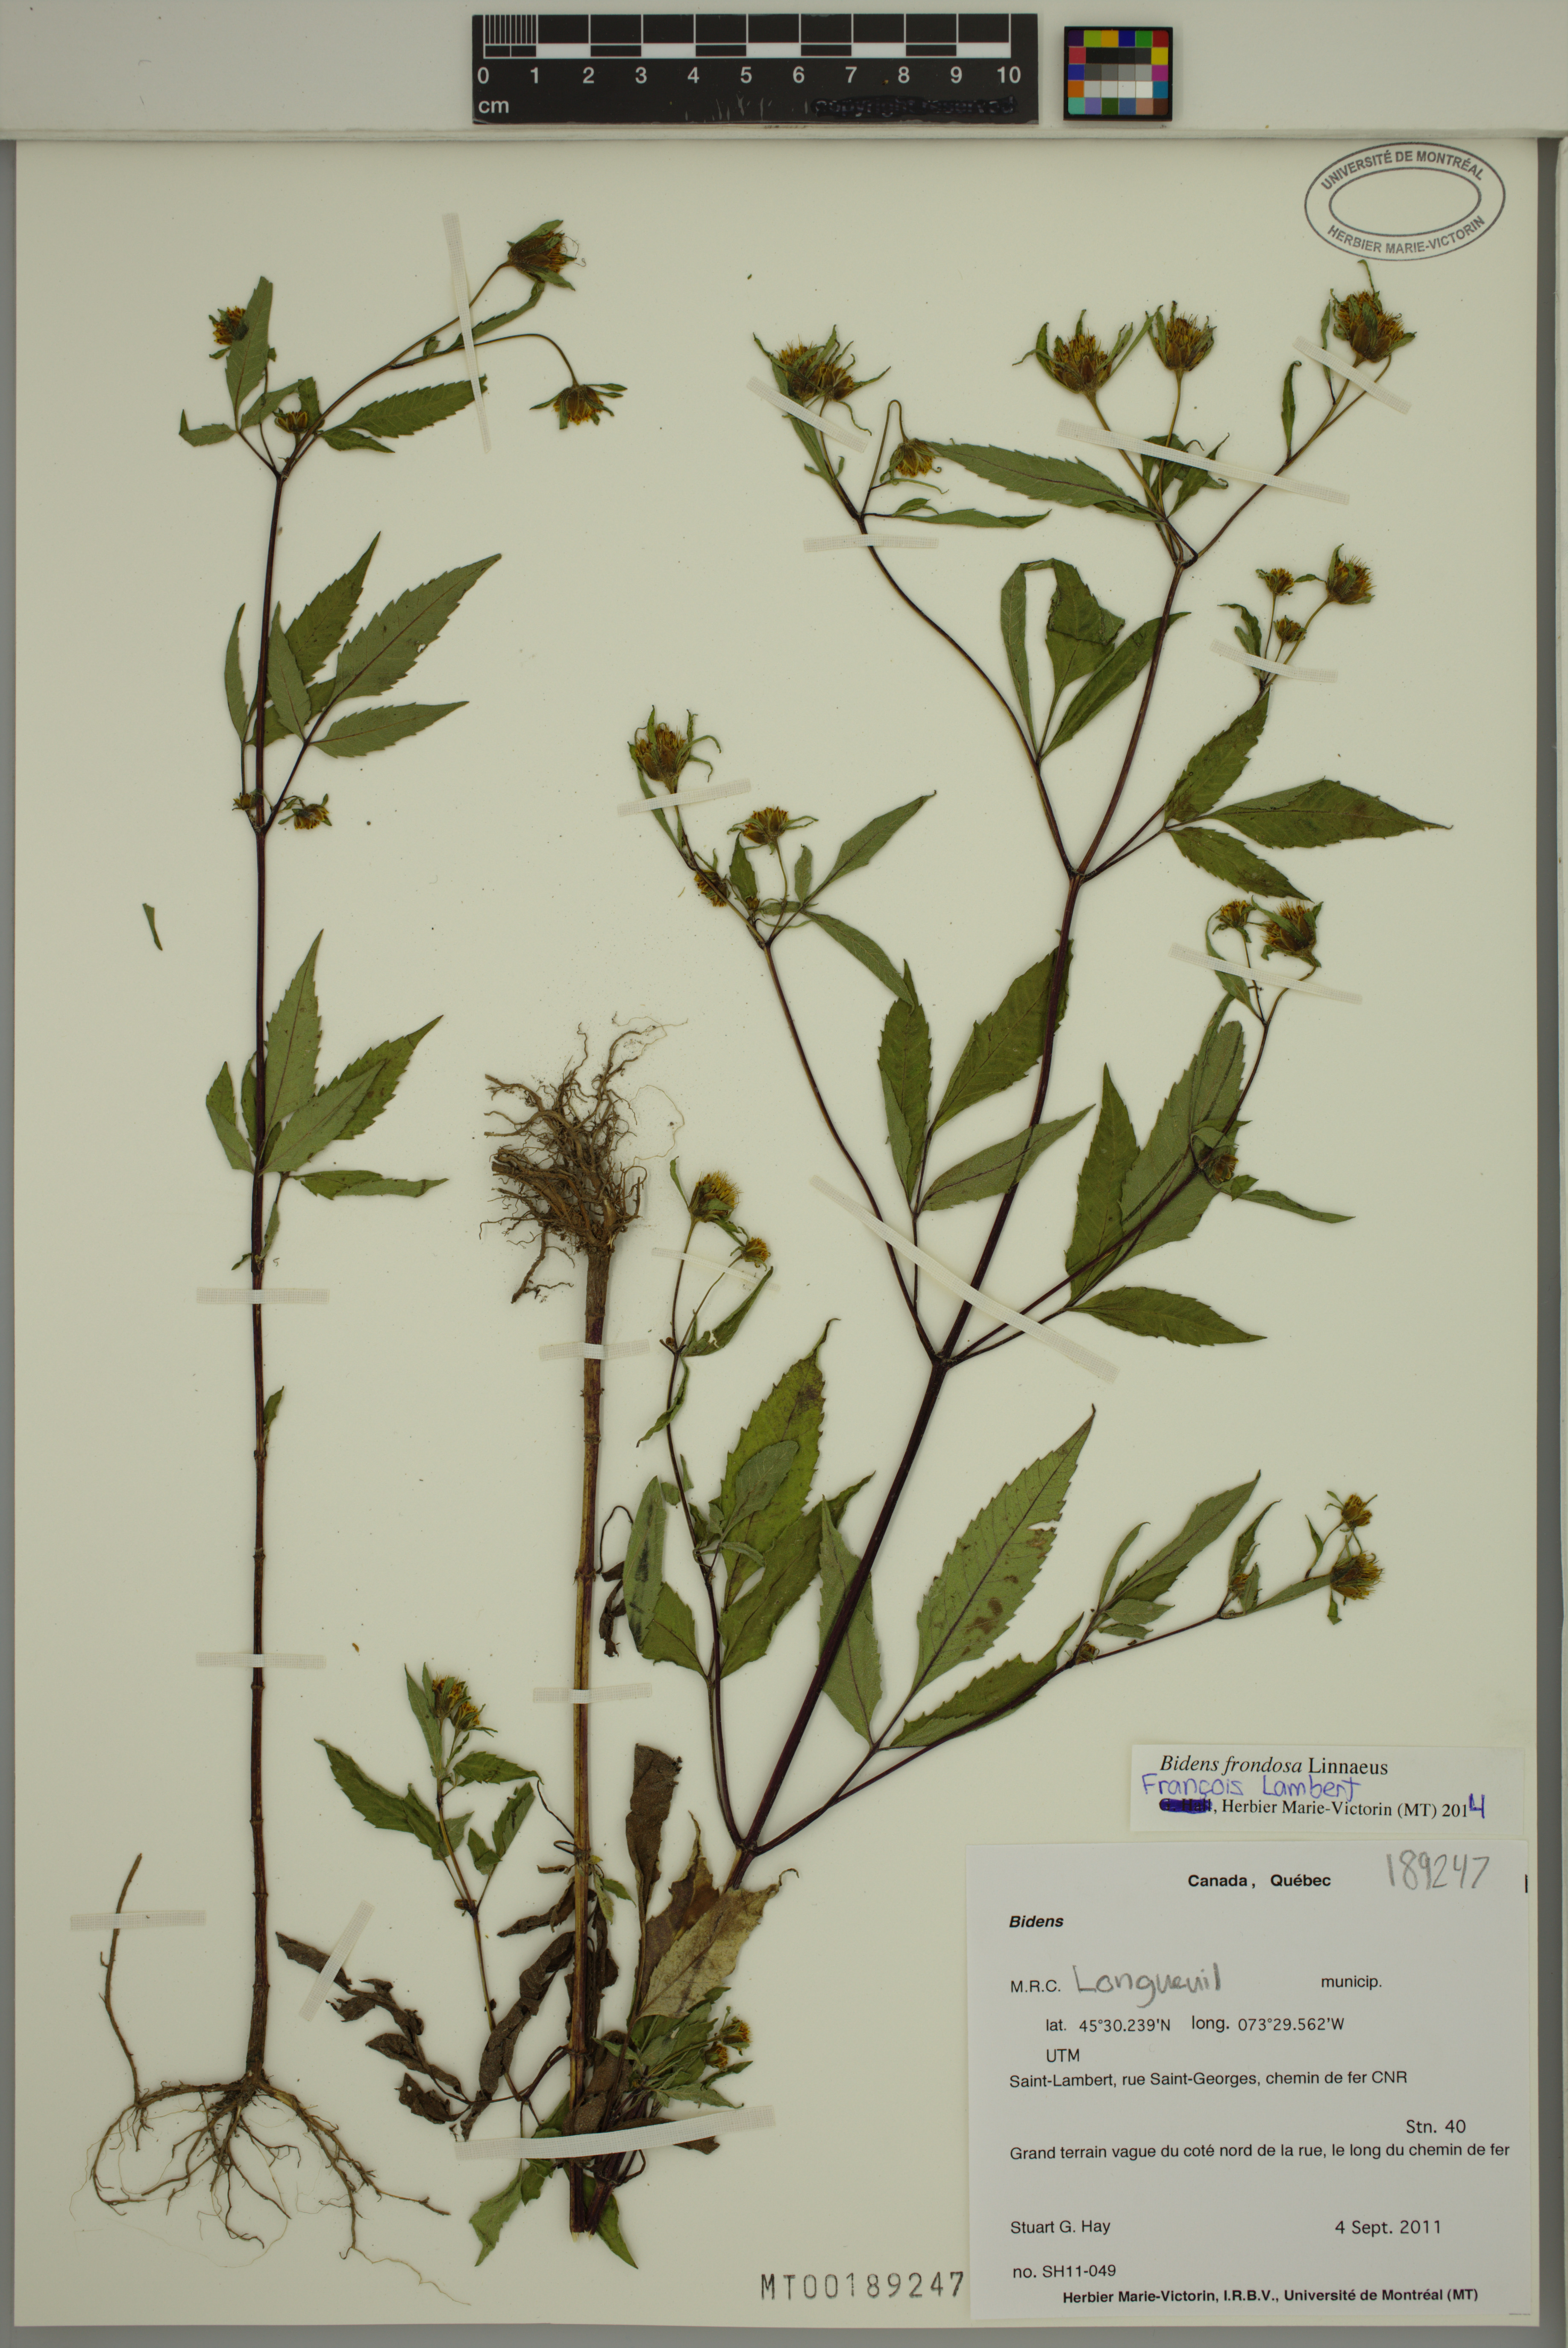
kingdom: Plantae
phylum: Tracheophyta
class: Magnoliopsida
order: Asterales
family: Asteraceae
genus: Bidens
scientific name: Bidens frondosa
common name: Beggarticks
